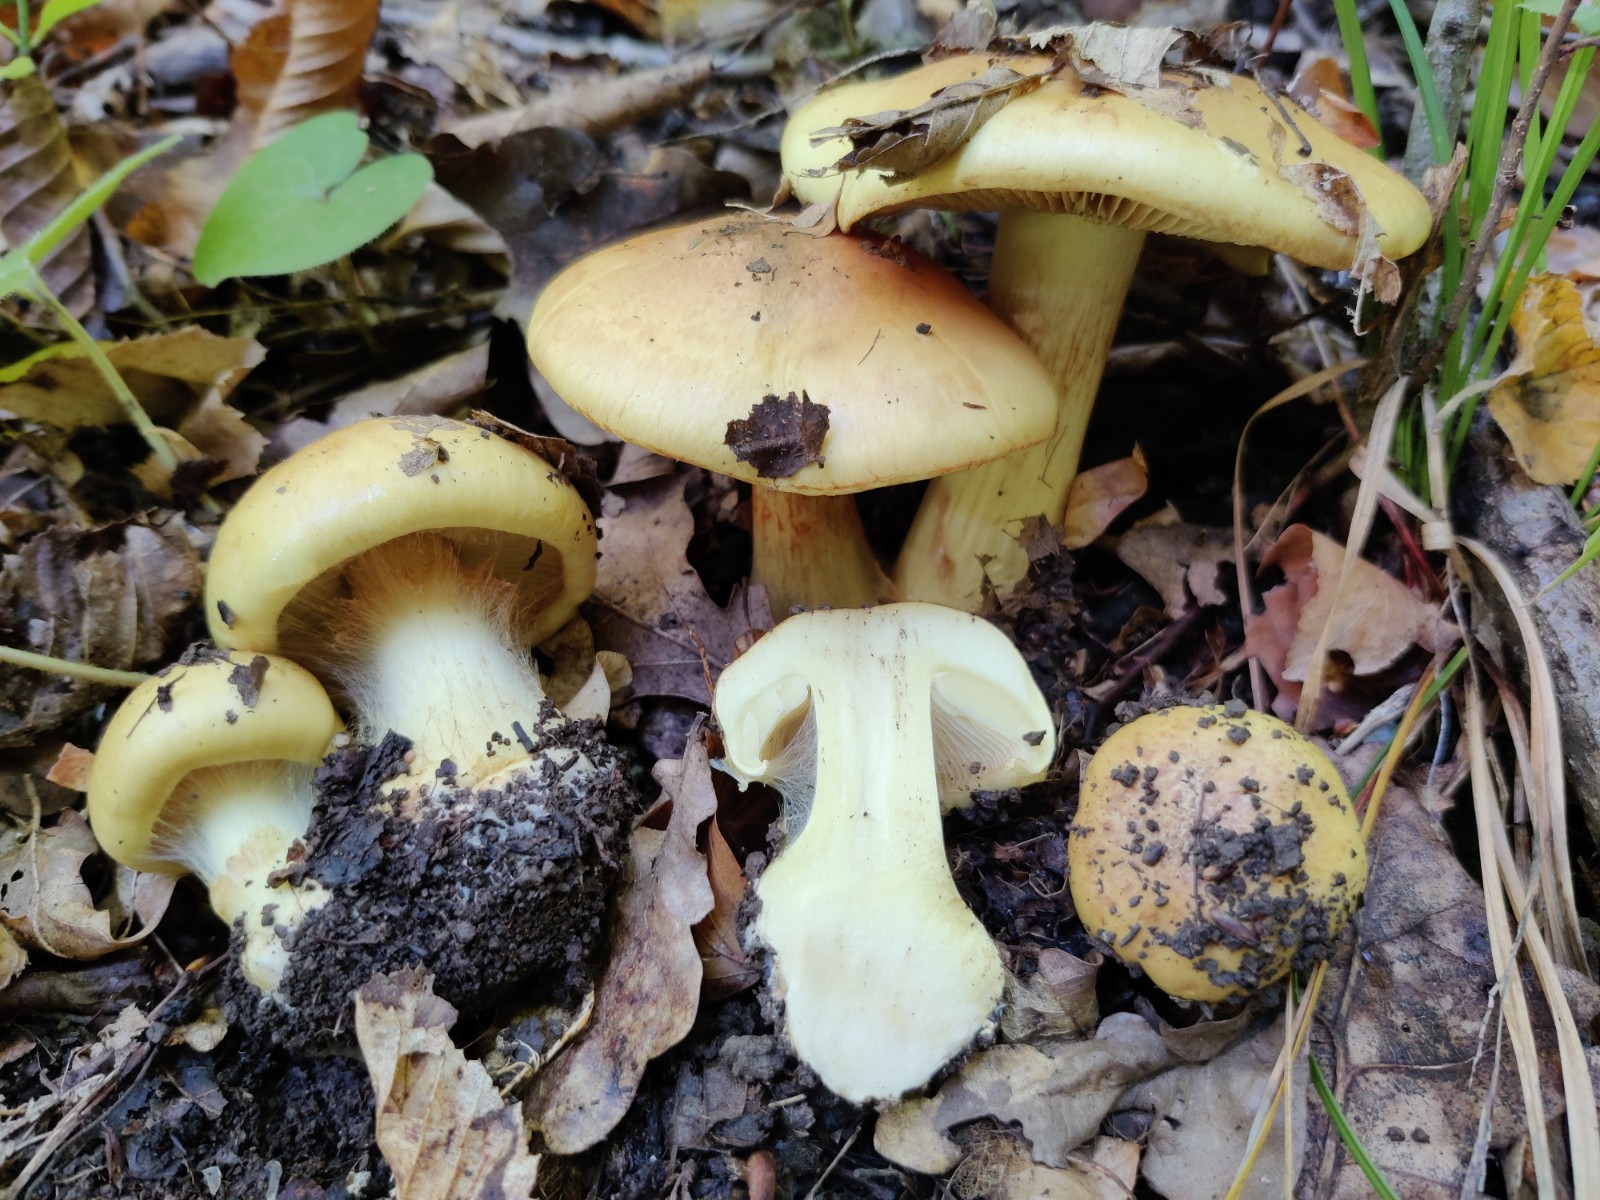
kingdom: Fungi
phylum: Basidiomycota
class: Agaricomycetes
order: Agaricales
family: Cortinariaceae
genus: Phlegmacium
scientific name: Phlegmacium aurilicis
